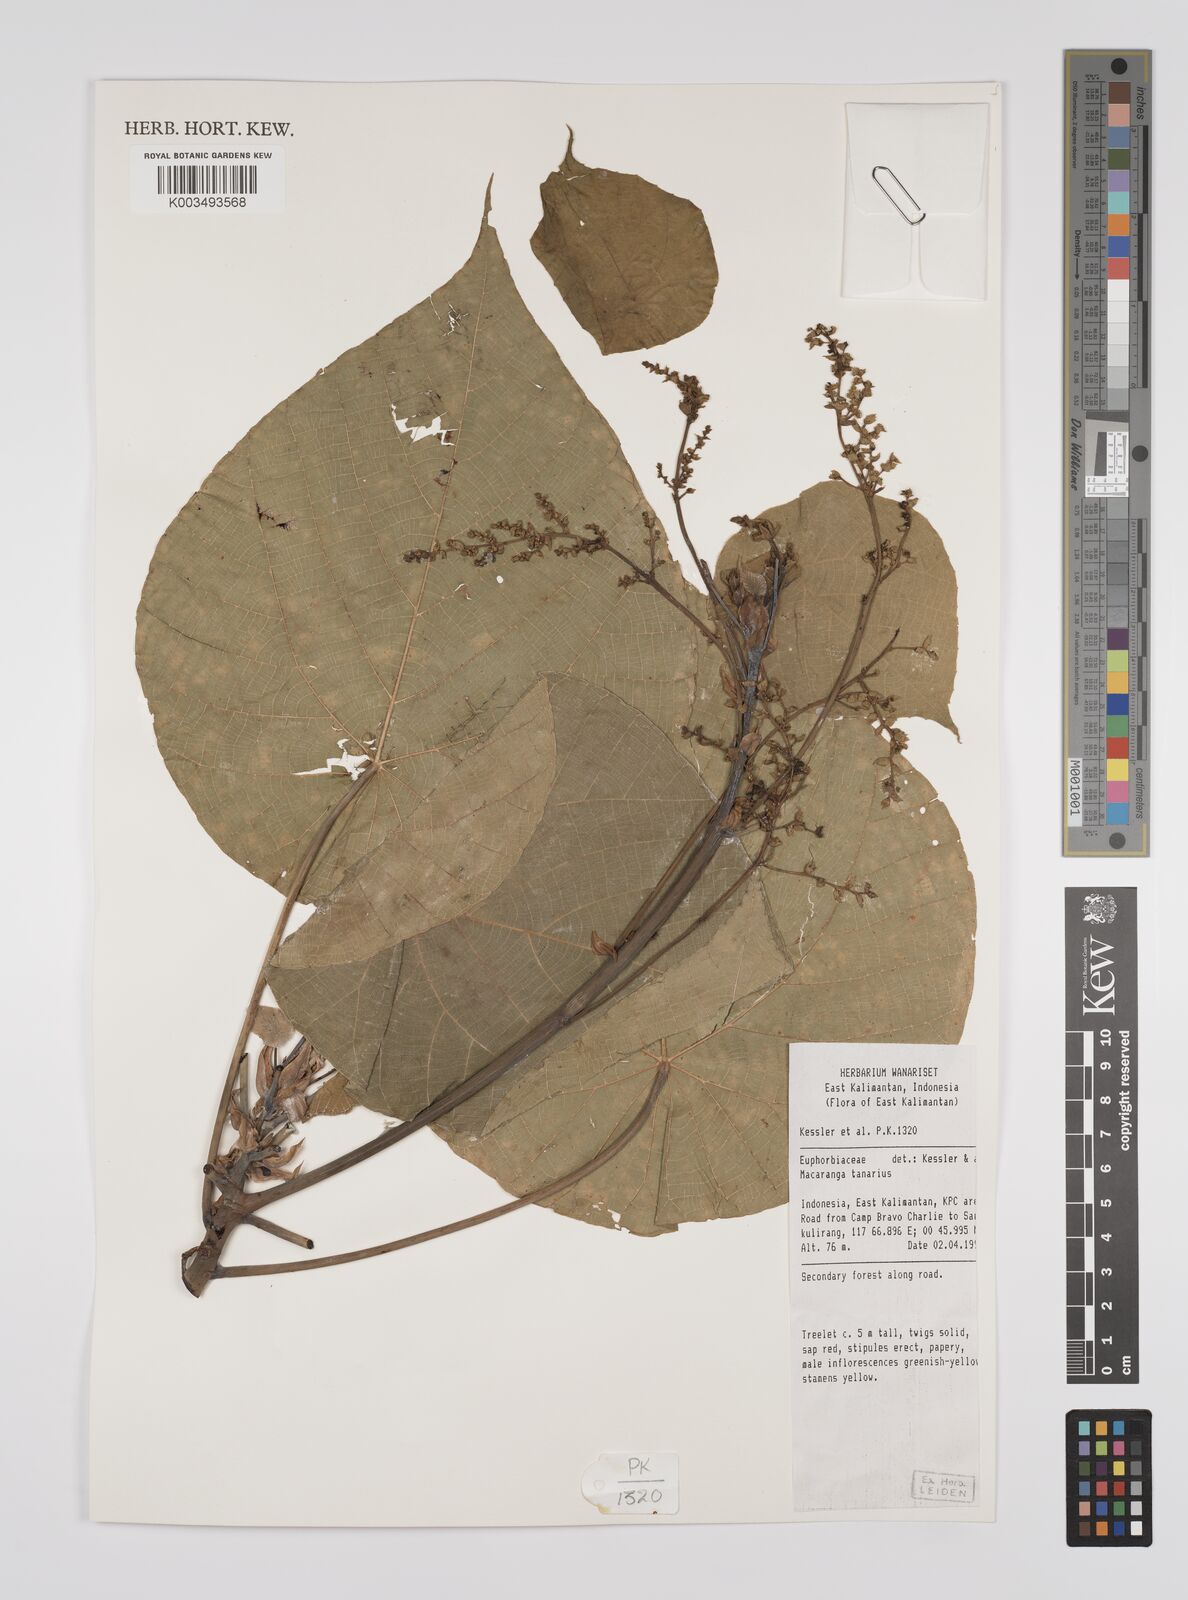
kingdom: Plantae
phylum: Tracheophyta
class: Magnoliopsida
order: Malpighiales
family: Euphorbiaceae
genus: Macaranga
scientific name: Macaranga tanarius
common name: Parasol leaf tree
